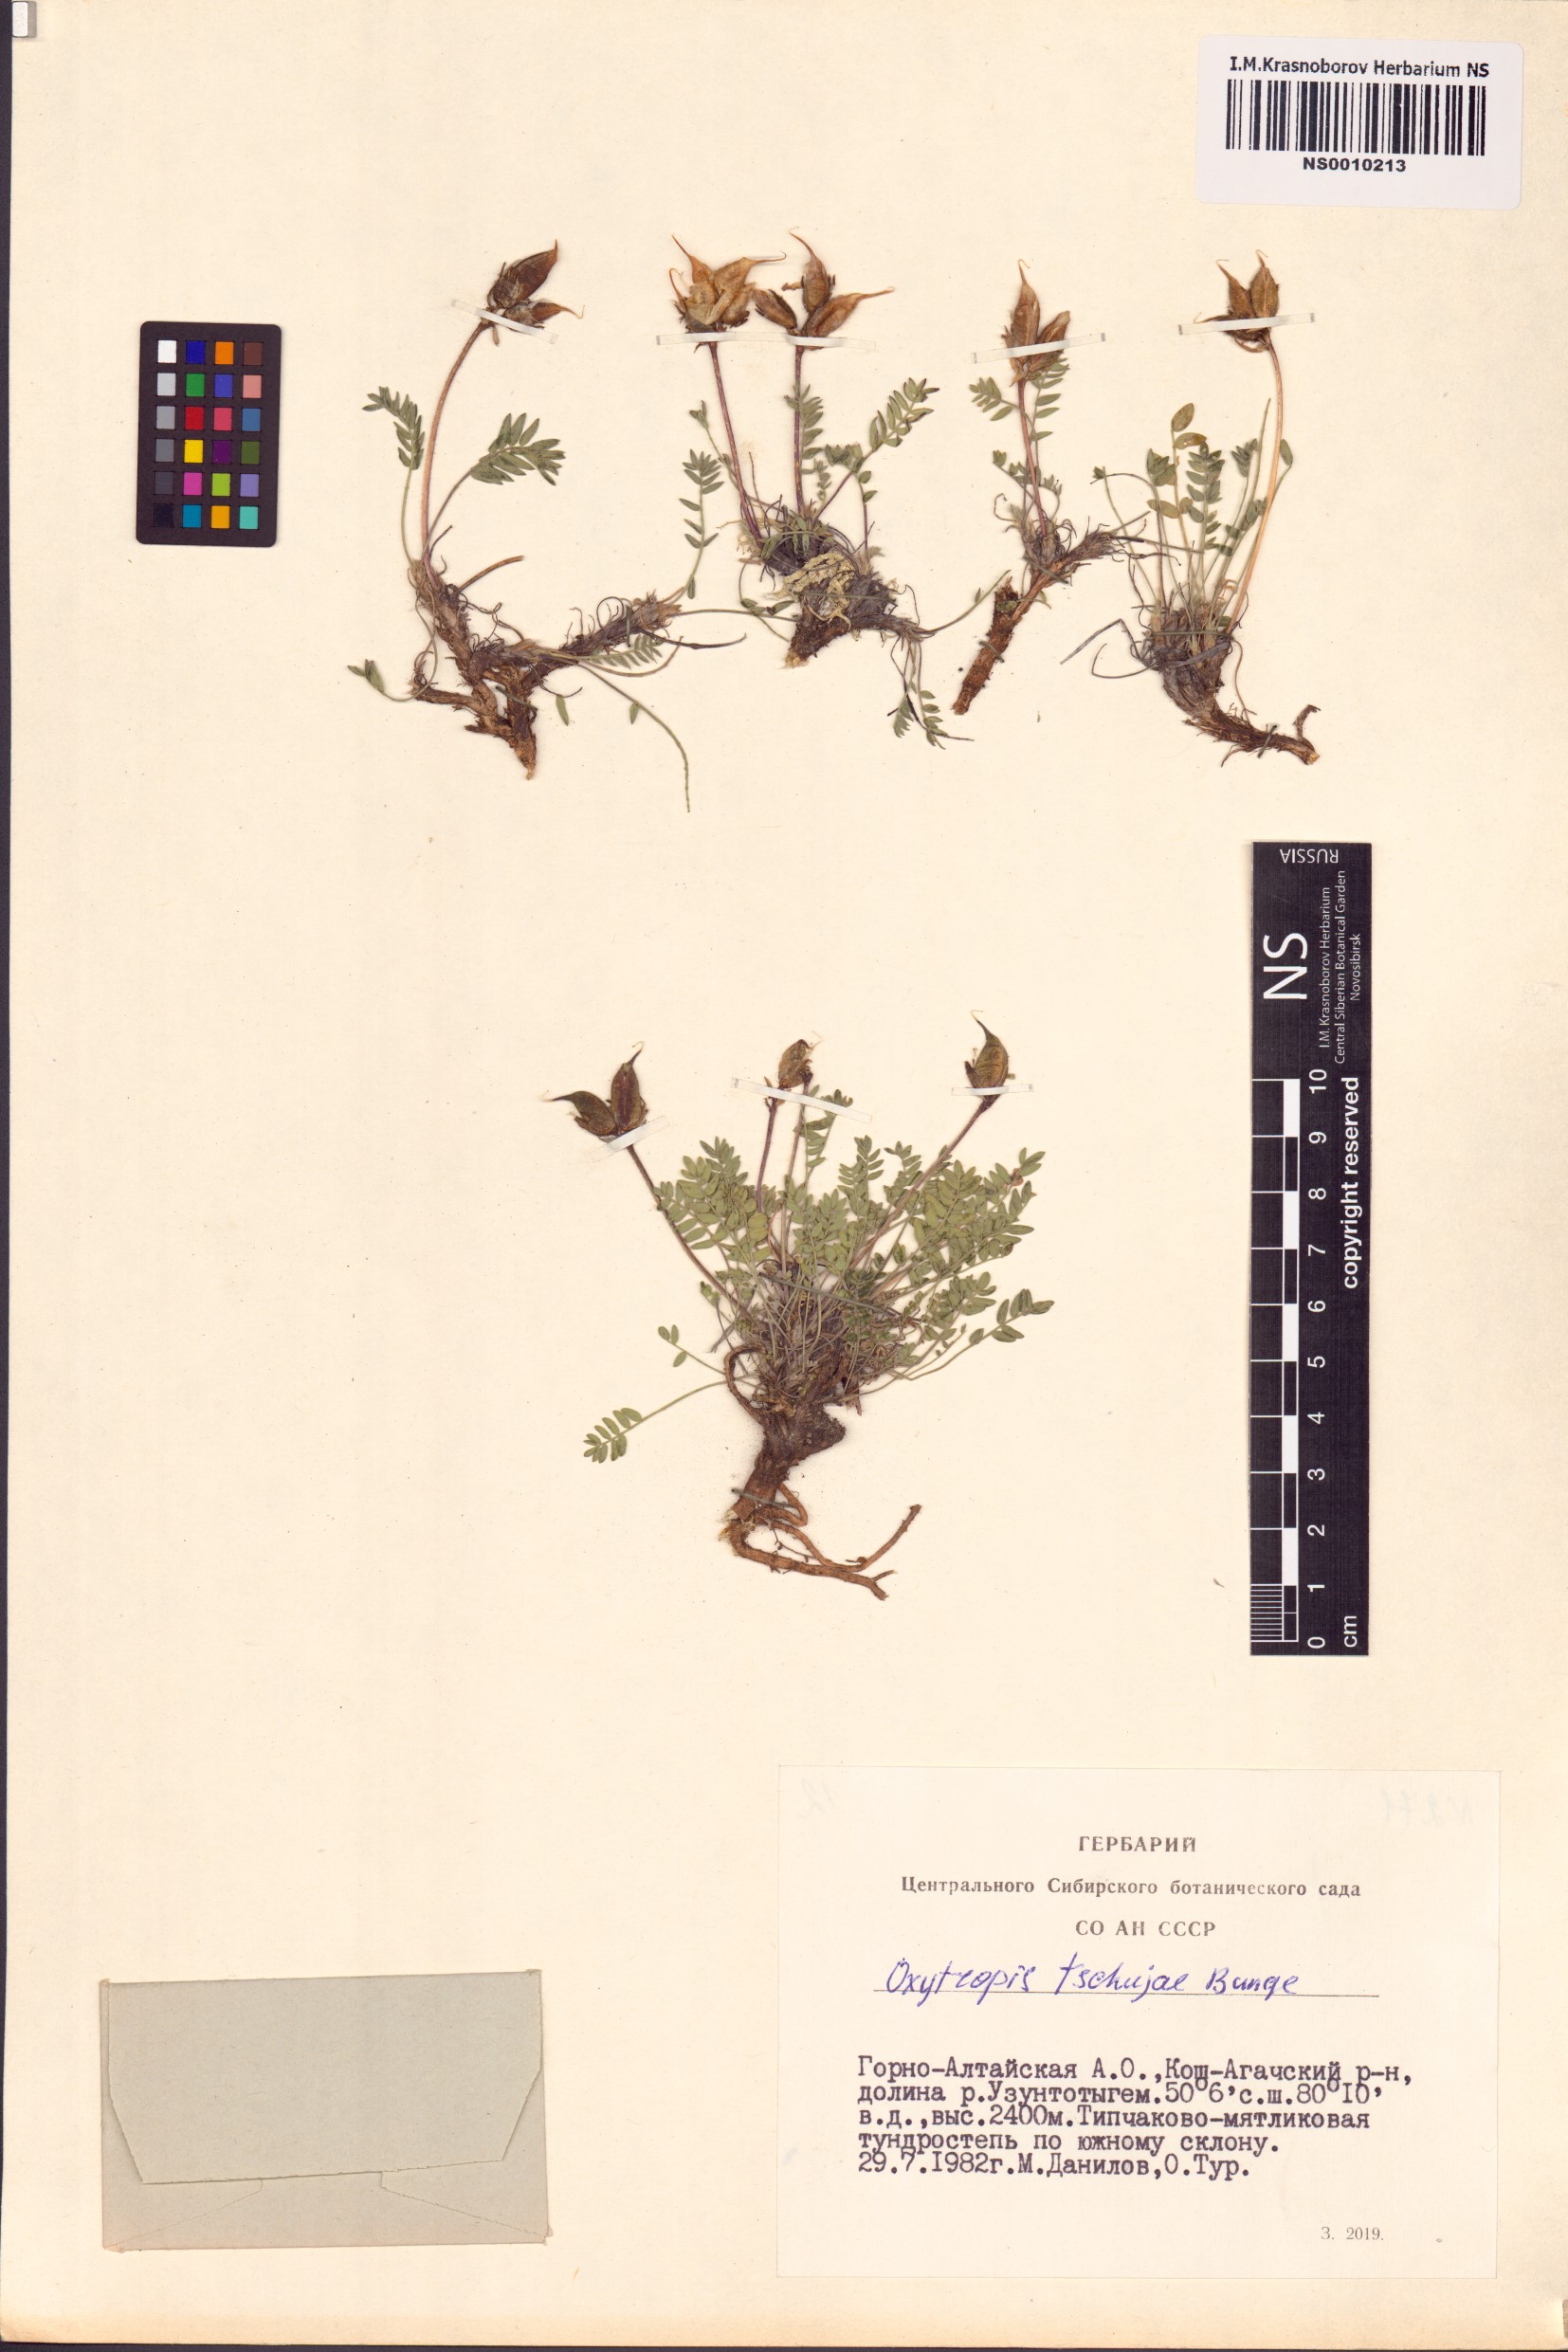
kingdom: Plantae
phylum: Tracheophyta
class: Magnoliopsida
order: Fabales
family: Fabaceae
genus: Oxytropis
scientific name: Oxytropis tschujae
